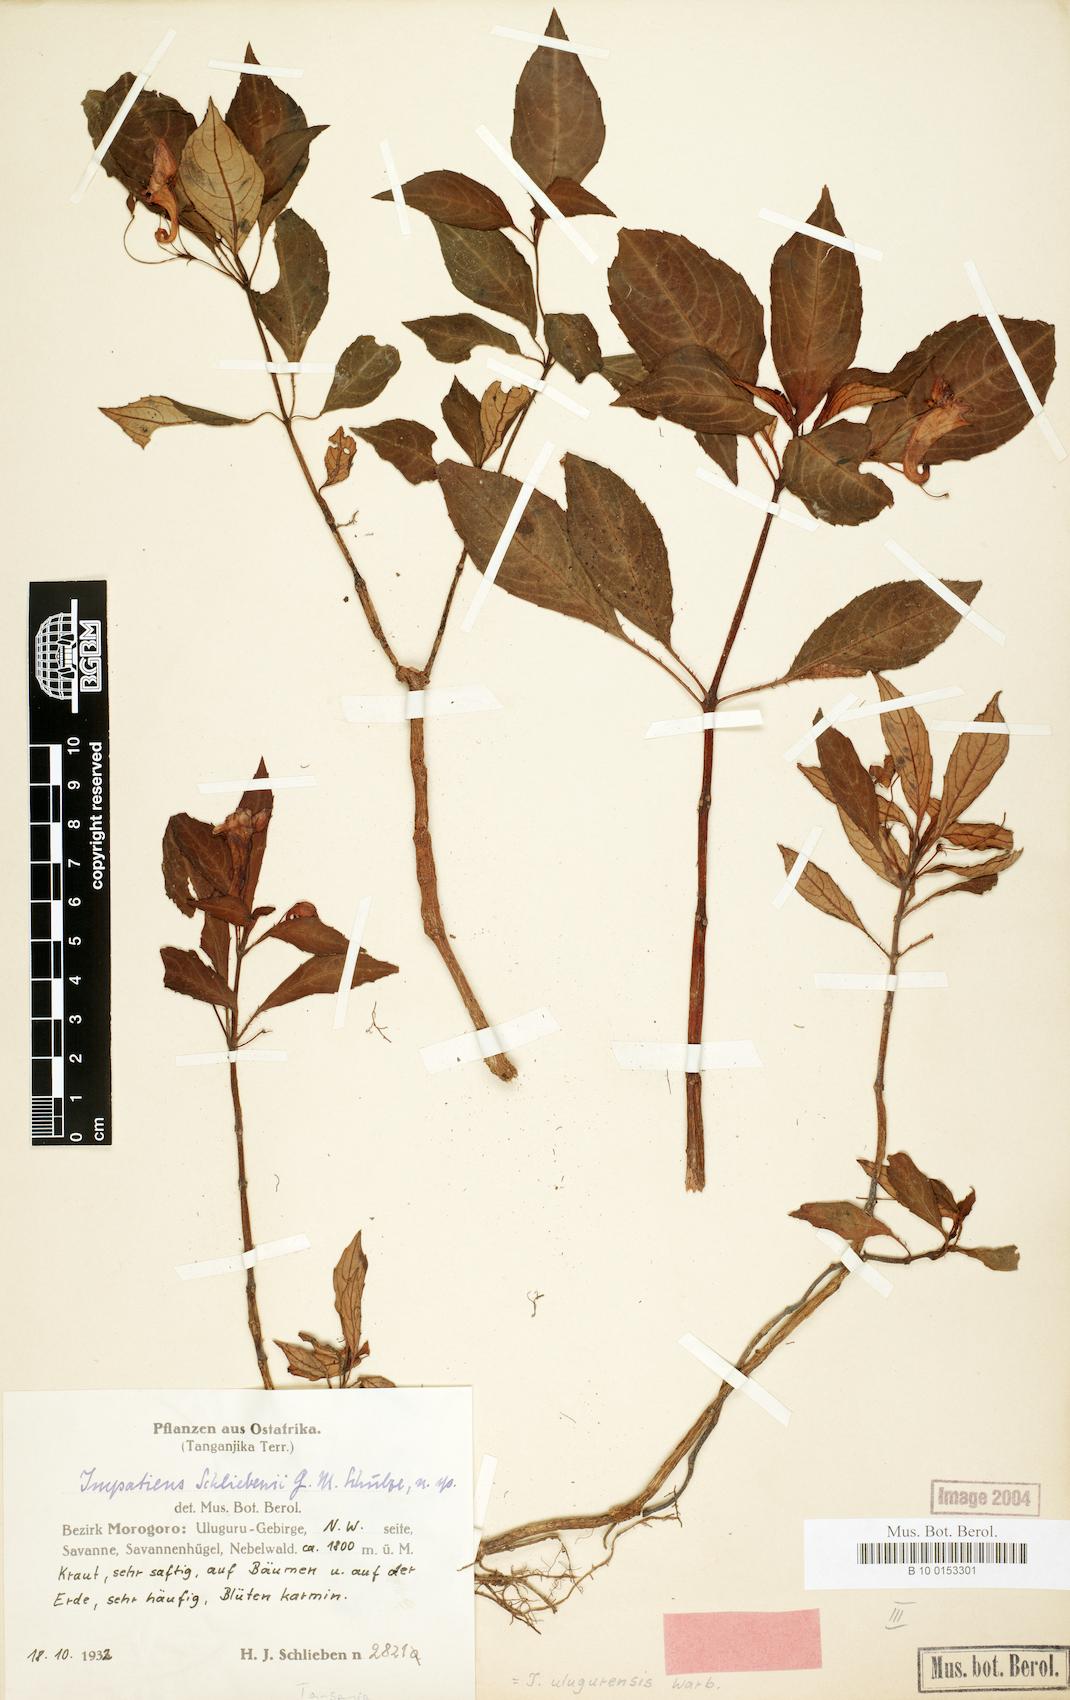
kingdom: Plantae
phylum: Tracheophyta
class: Magnoliopsida
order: Ericales
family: Balsaminaceae
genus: Impatiens
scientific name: Impatiens ulugurensis
